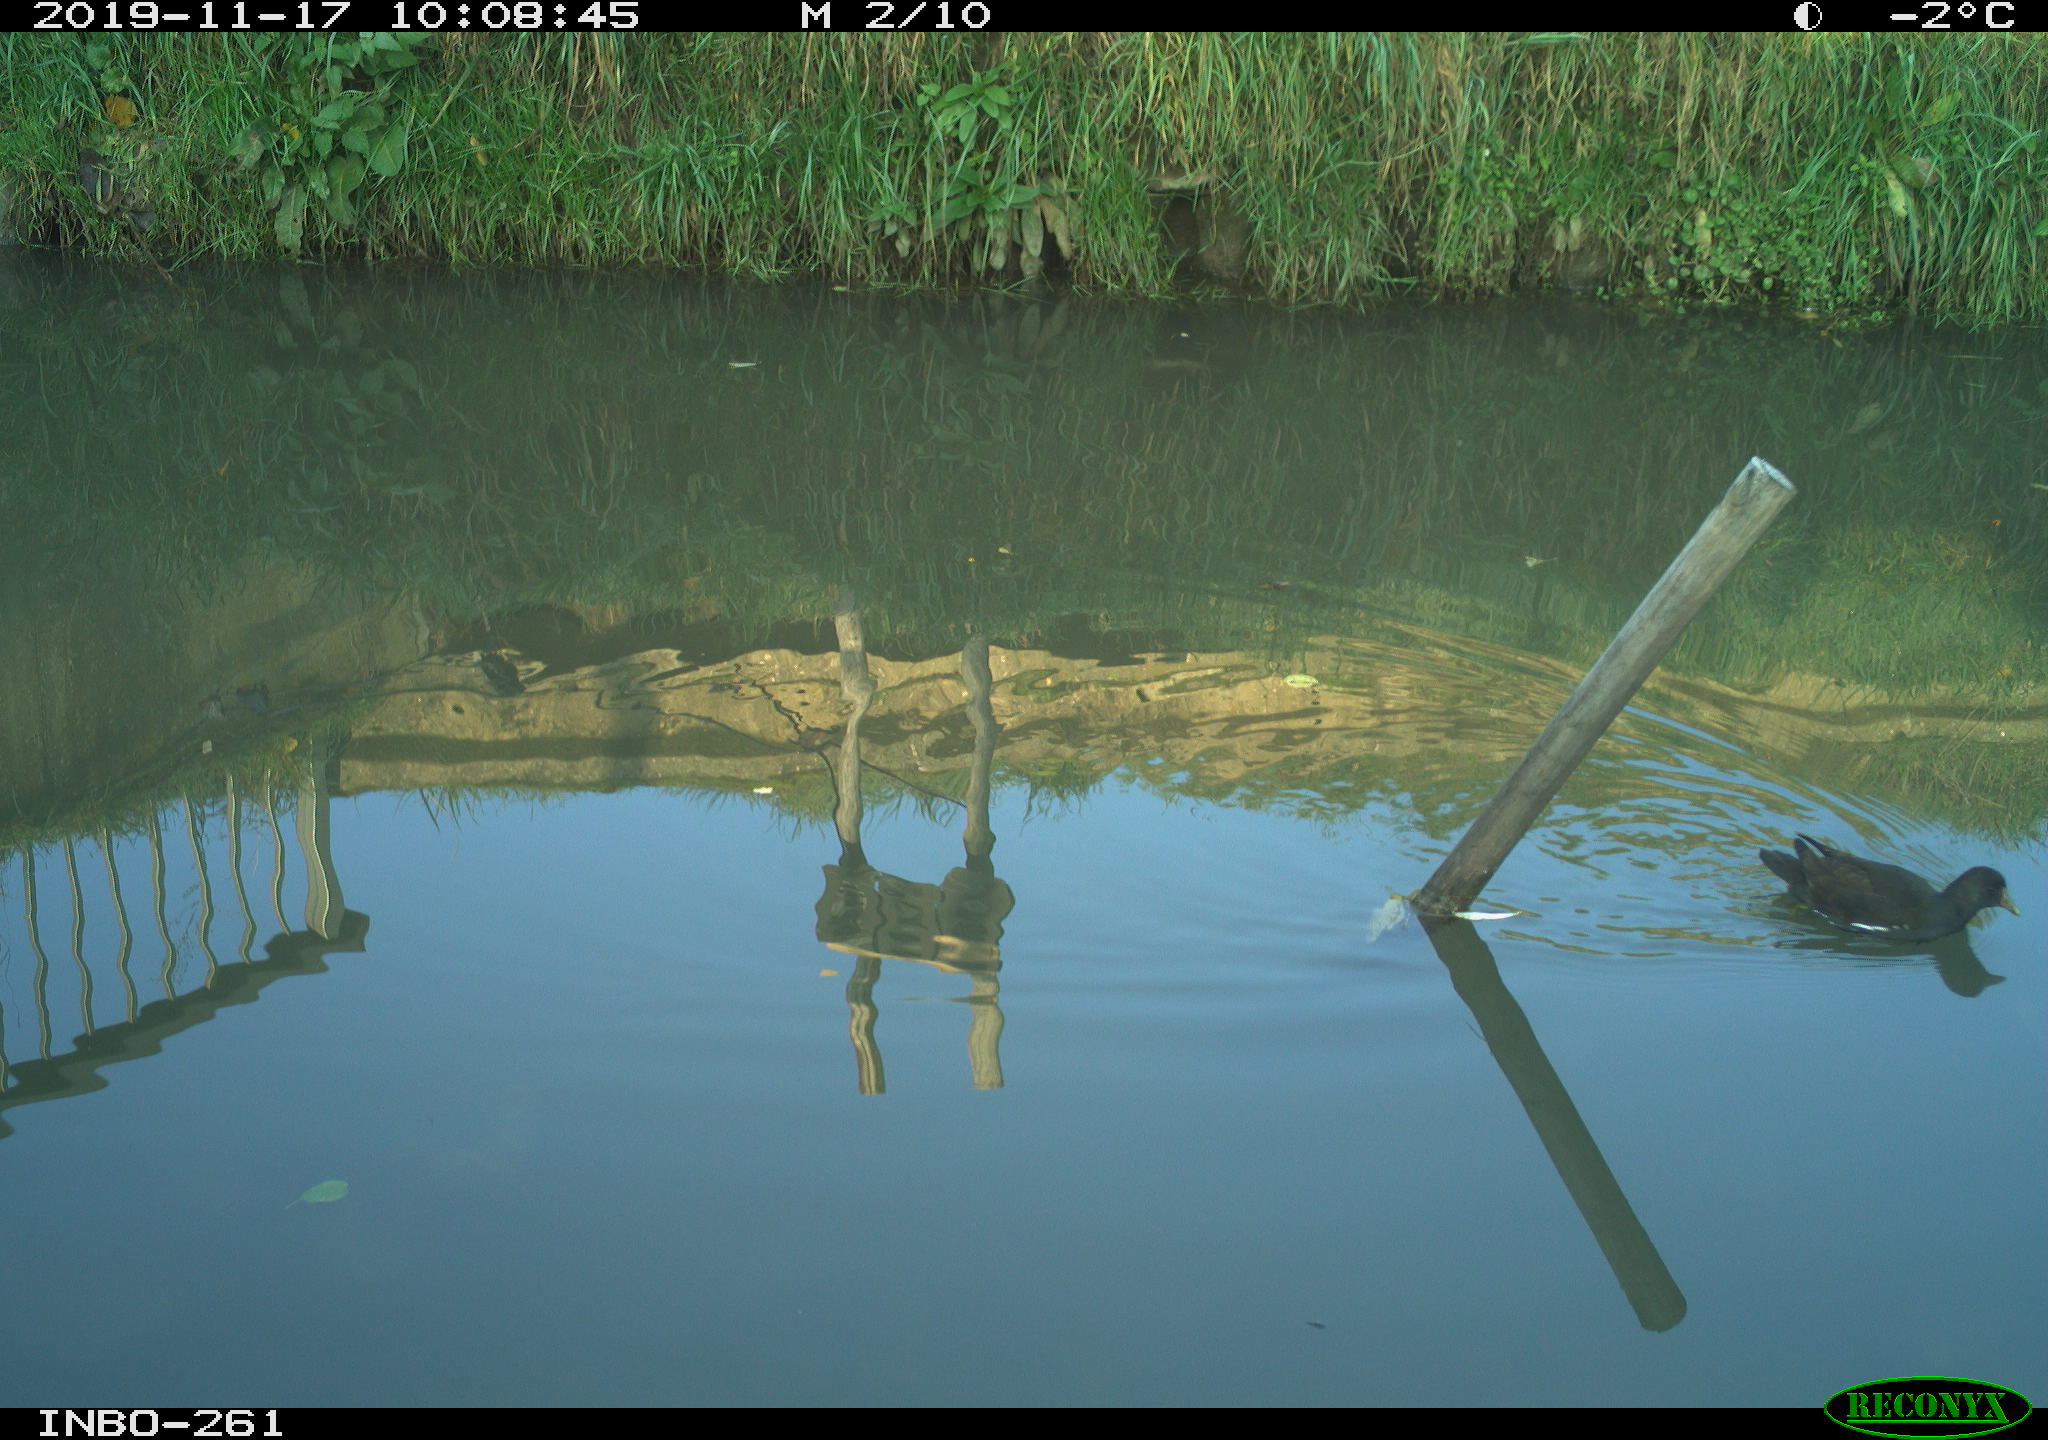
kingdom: Animalia
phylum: Chordata
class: Aves
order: Gruiformes
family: Rallidae
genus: Gallinula
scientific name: Gallinula chloropus
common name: Common moorhen
